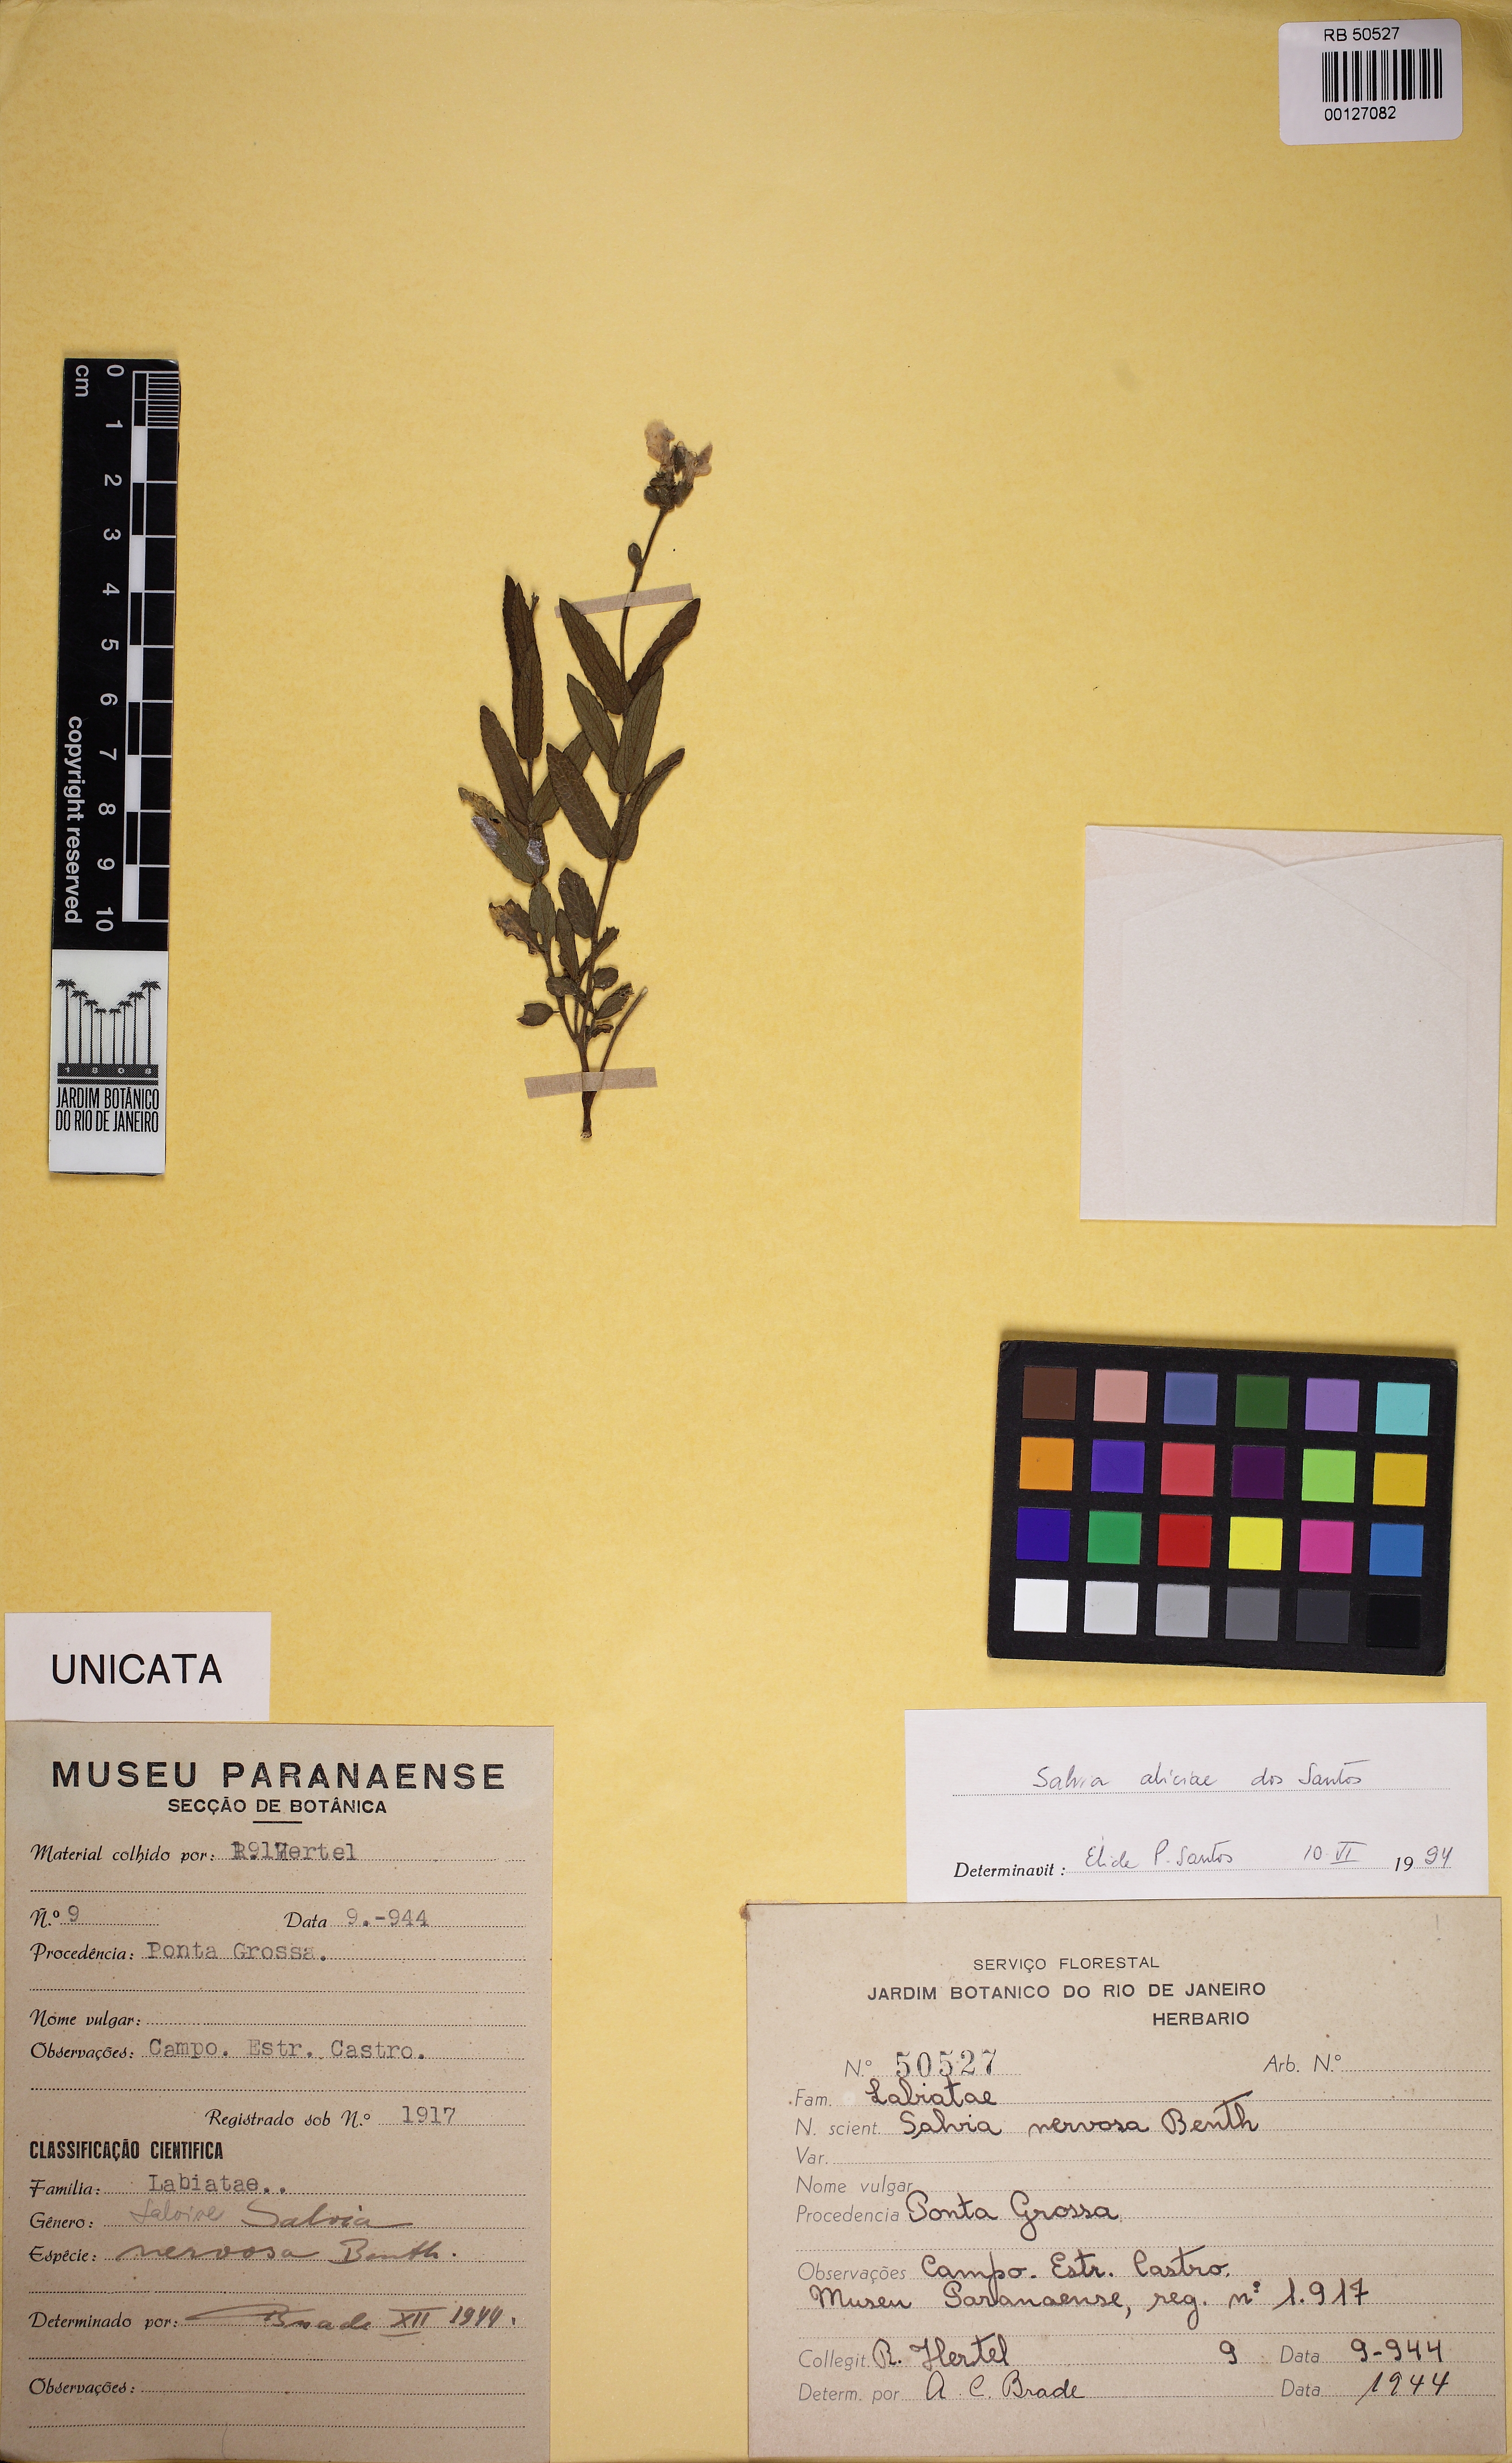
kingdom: Plantae
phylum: Tracheophyta
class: Magnoliopsida
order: Lamiales
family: Lamiaceae
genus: Salvia
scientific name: Salvia aliciae
